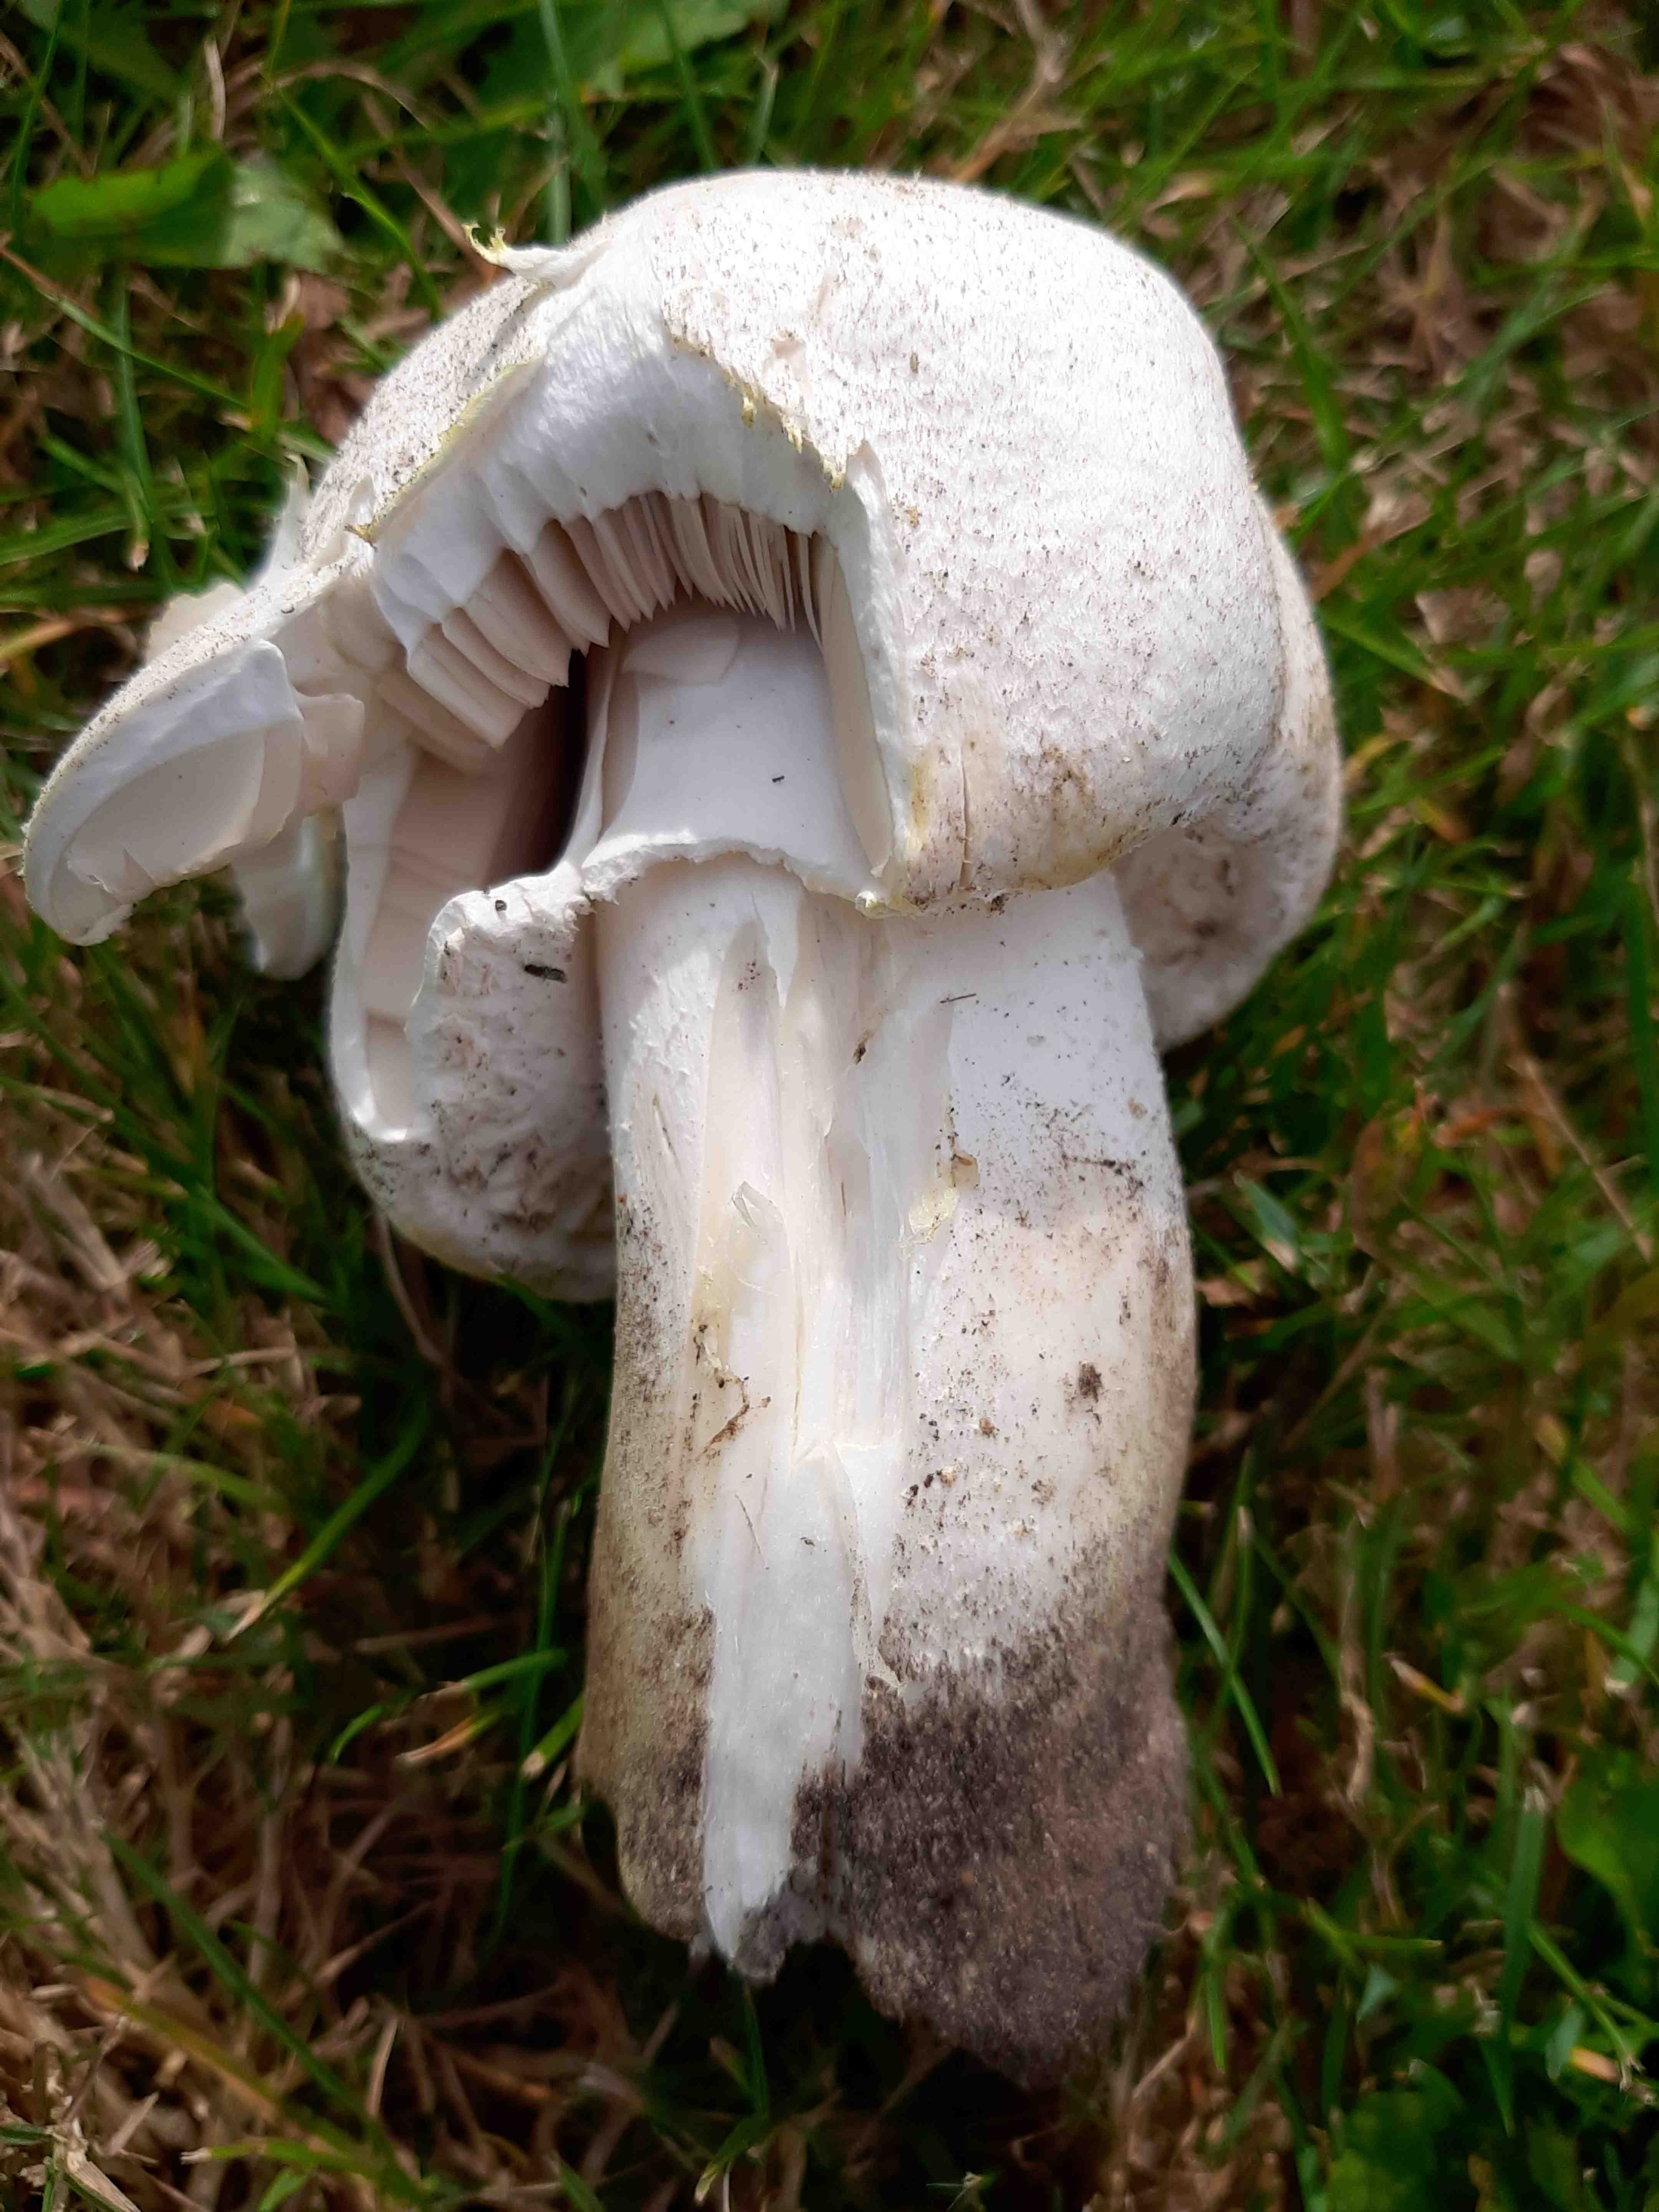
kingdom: Fungi
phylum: Basidiomycota
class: Agaricomycetes
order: Agaricales
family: Agaricaceae
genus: Agaricus
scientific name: Agaricus arvensis
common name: ager-champignon
